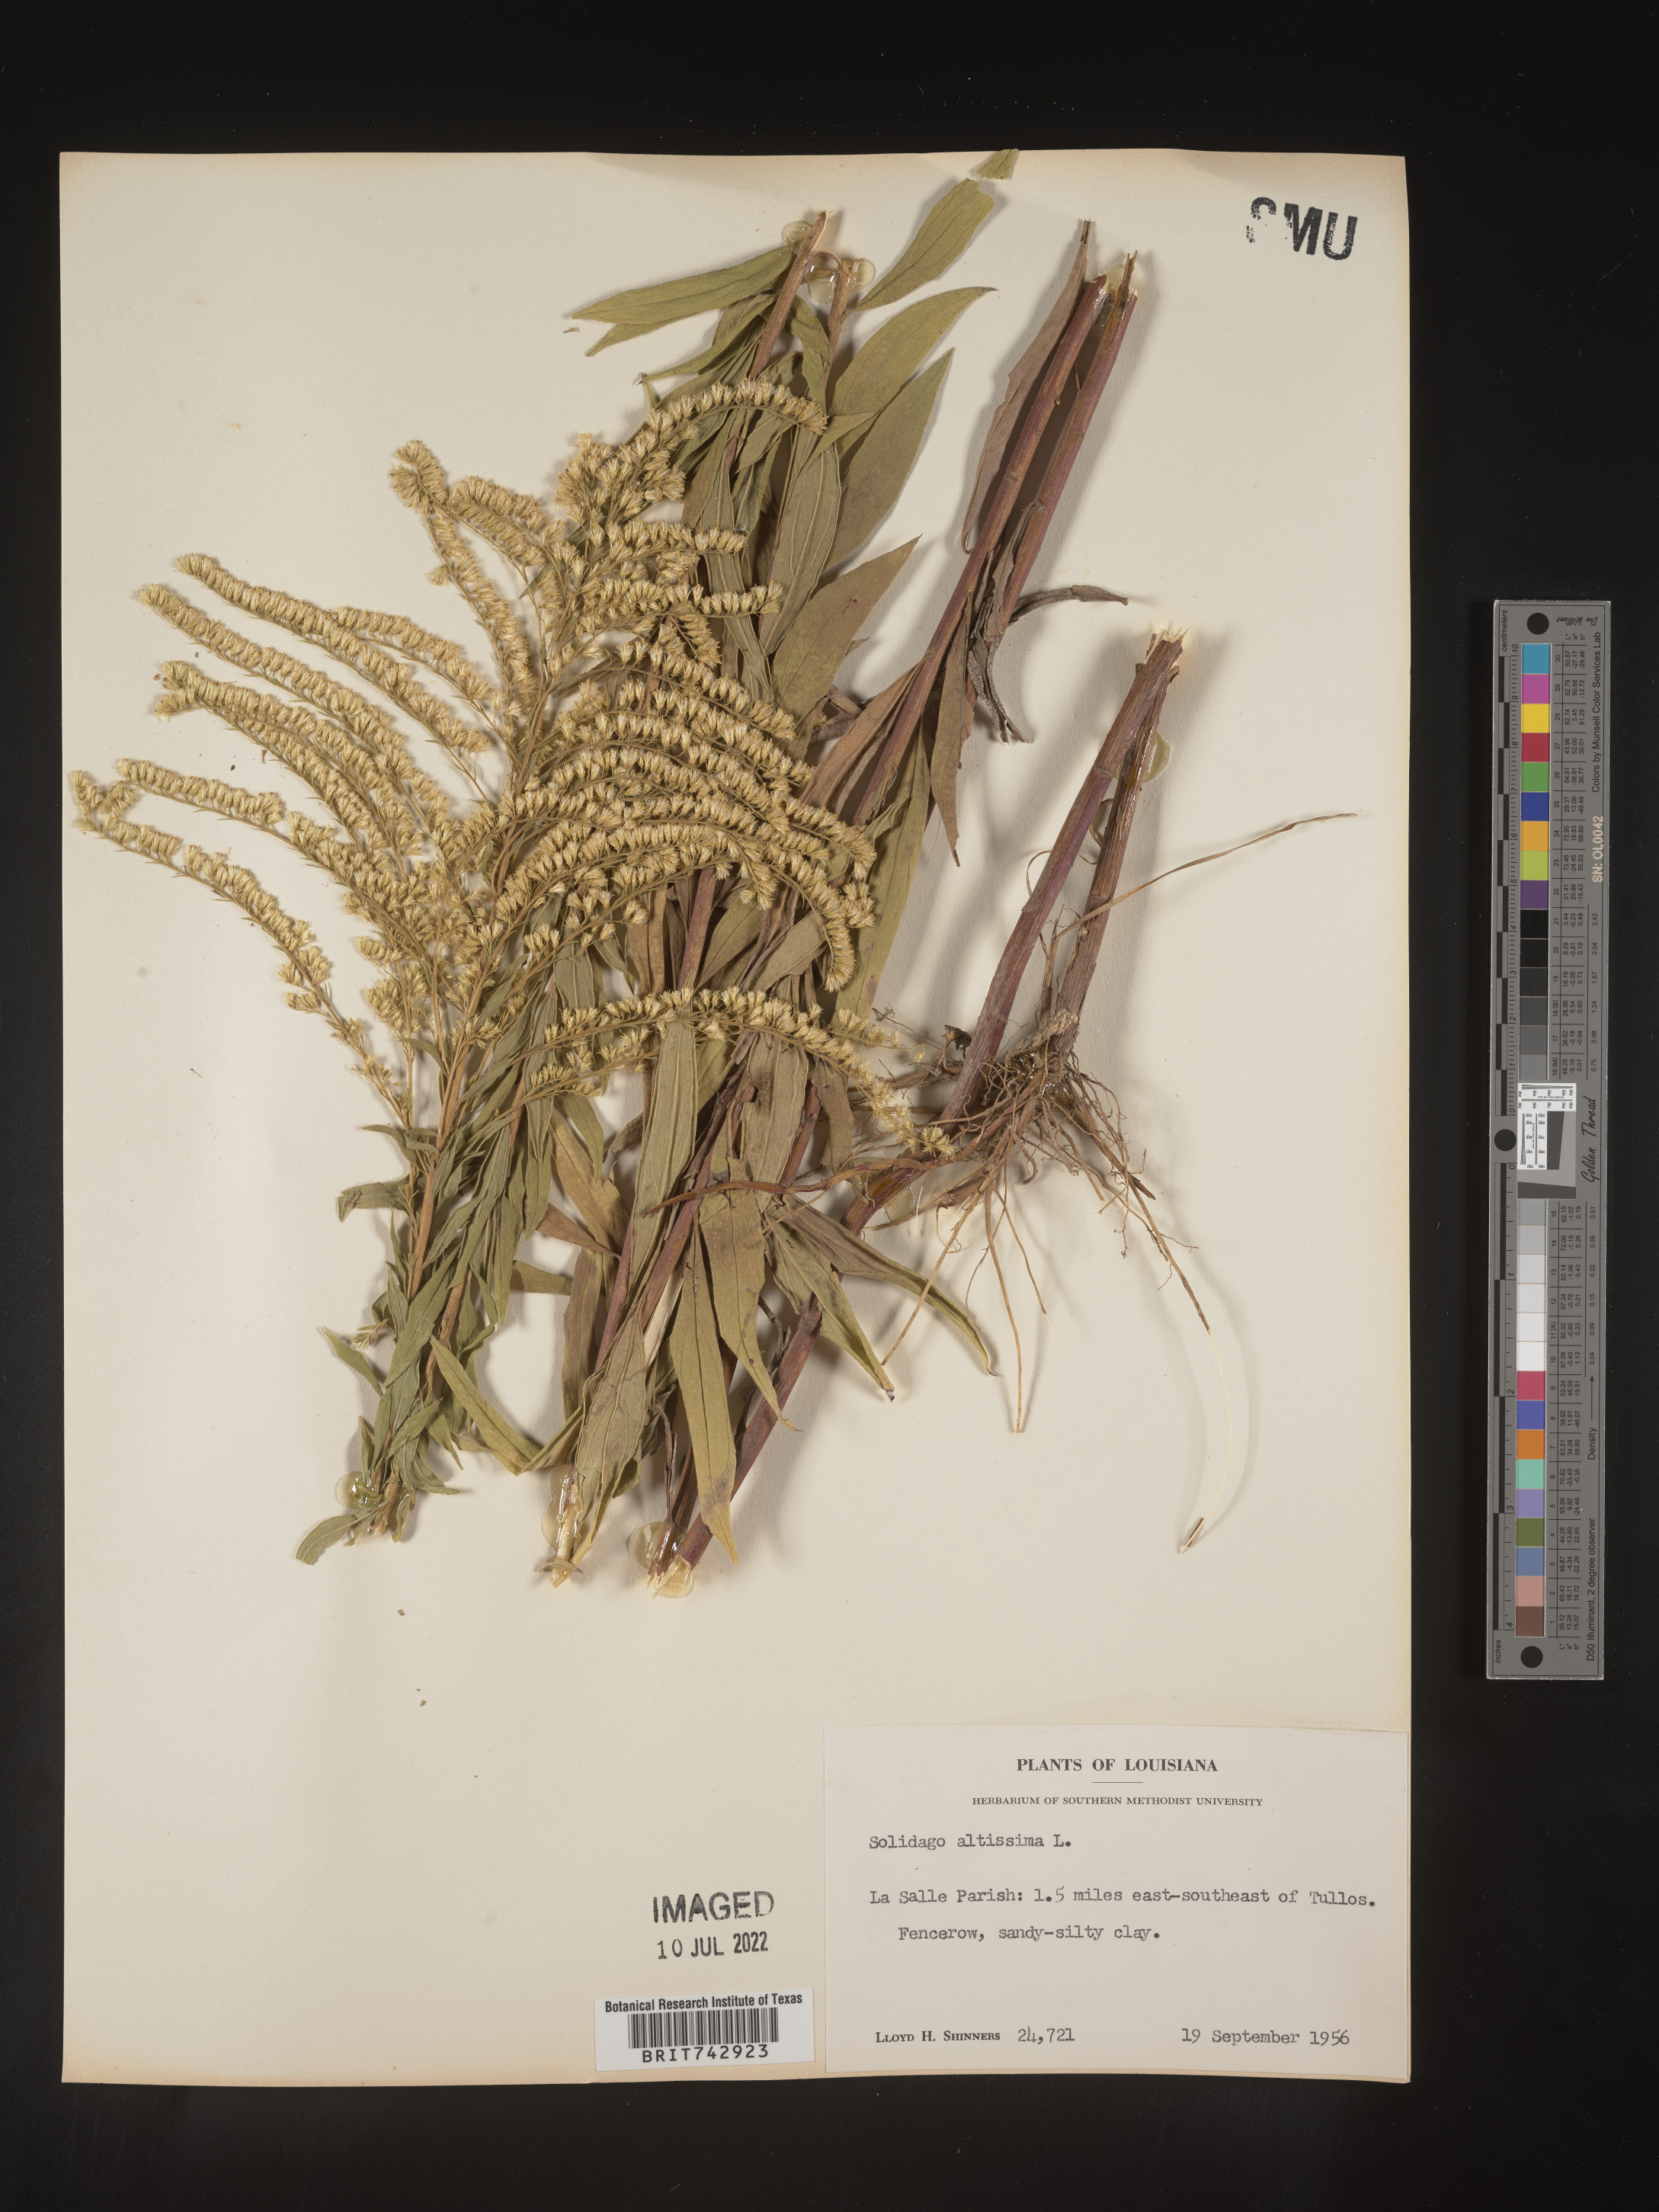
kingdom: Plantae
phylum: Tracheophyta
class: Magnoliopsida
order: Asterales
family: Asteraceae
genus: Solidago
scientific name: Solidago altissima
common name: Late goldenrod
